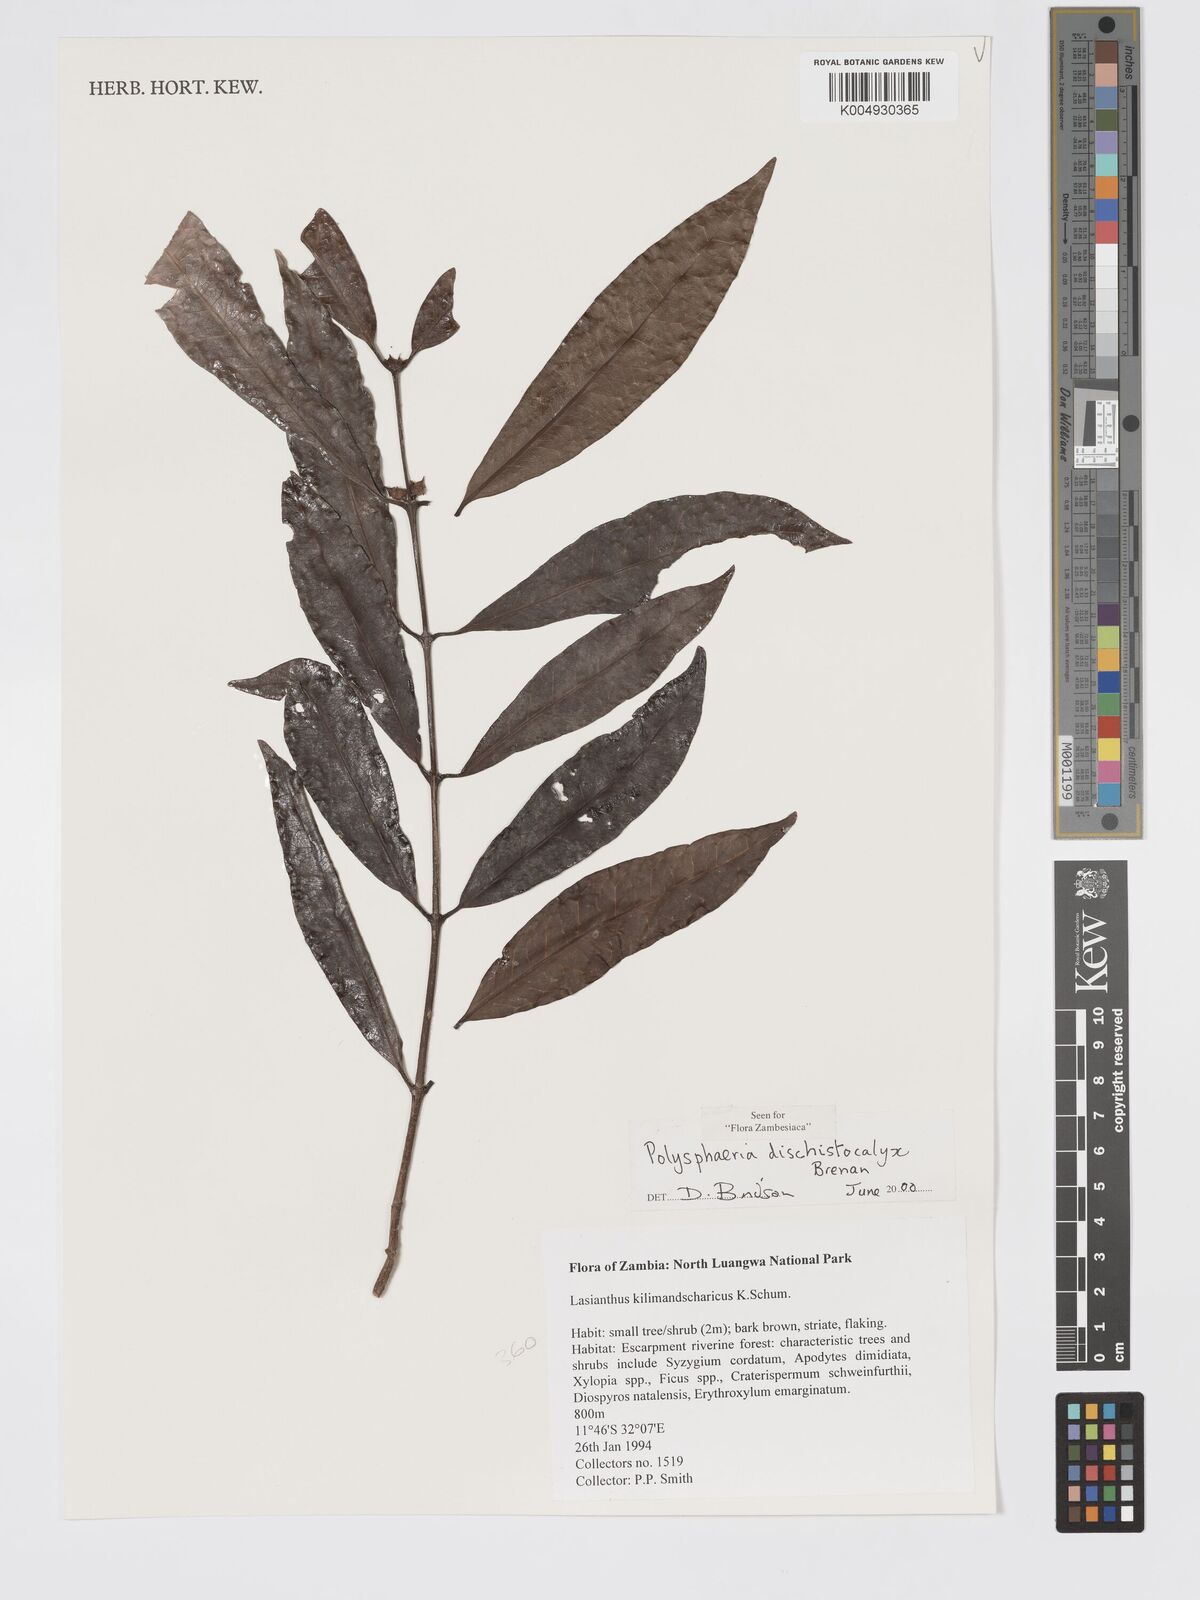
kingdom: Plantae
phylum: Tracheophyta
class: Magnoliopsida
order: Gentianales
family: Rubiaceae
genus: Polysphaeria
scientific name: Polysphaeria dischistocalyx
